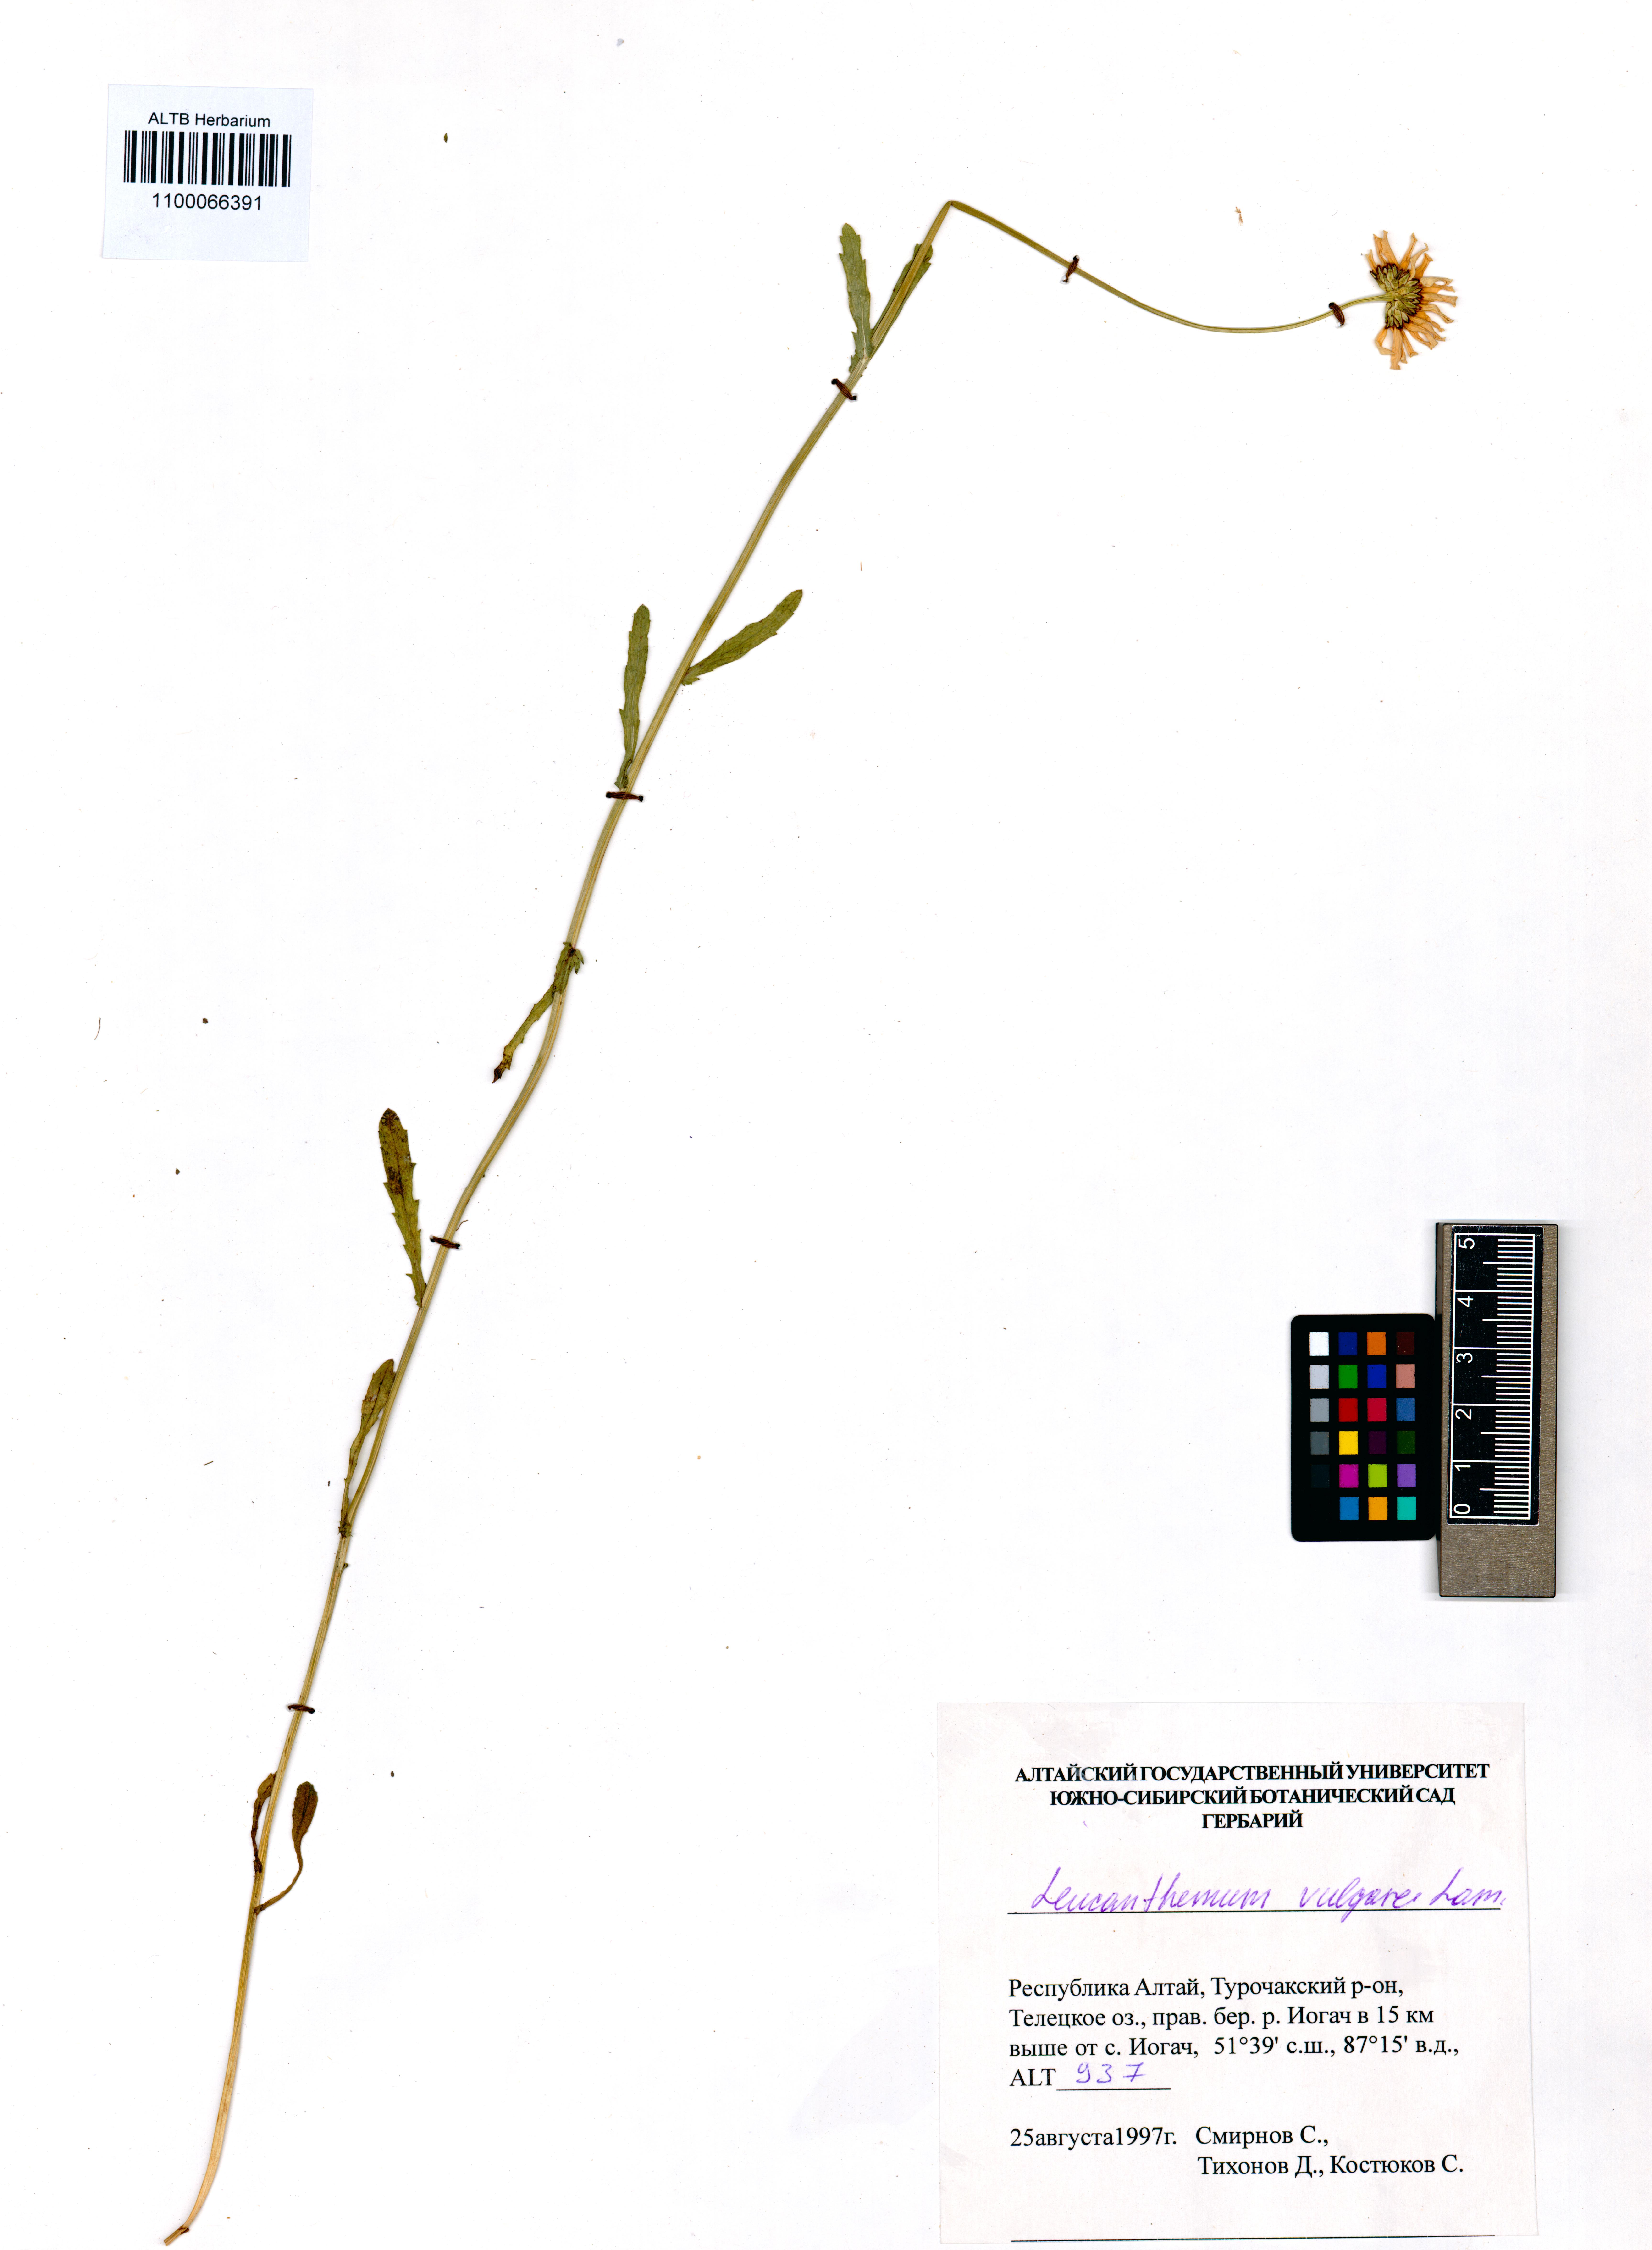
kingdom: Plantae
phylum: Tracheophyta
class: Magnoliopsida
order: Asterales
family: Asteraceae
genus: Leucanthemum
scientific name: Leucanthemum vulgare
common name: Oxeye daisy
